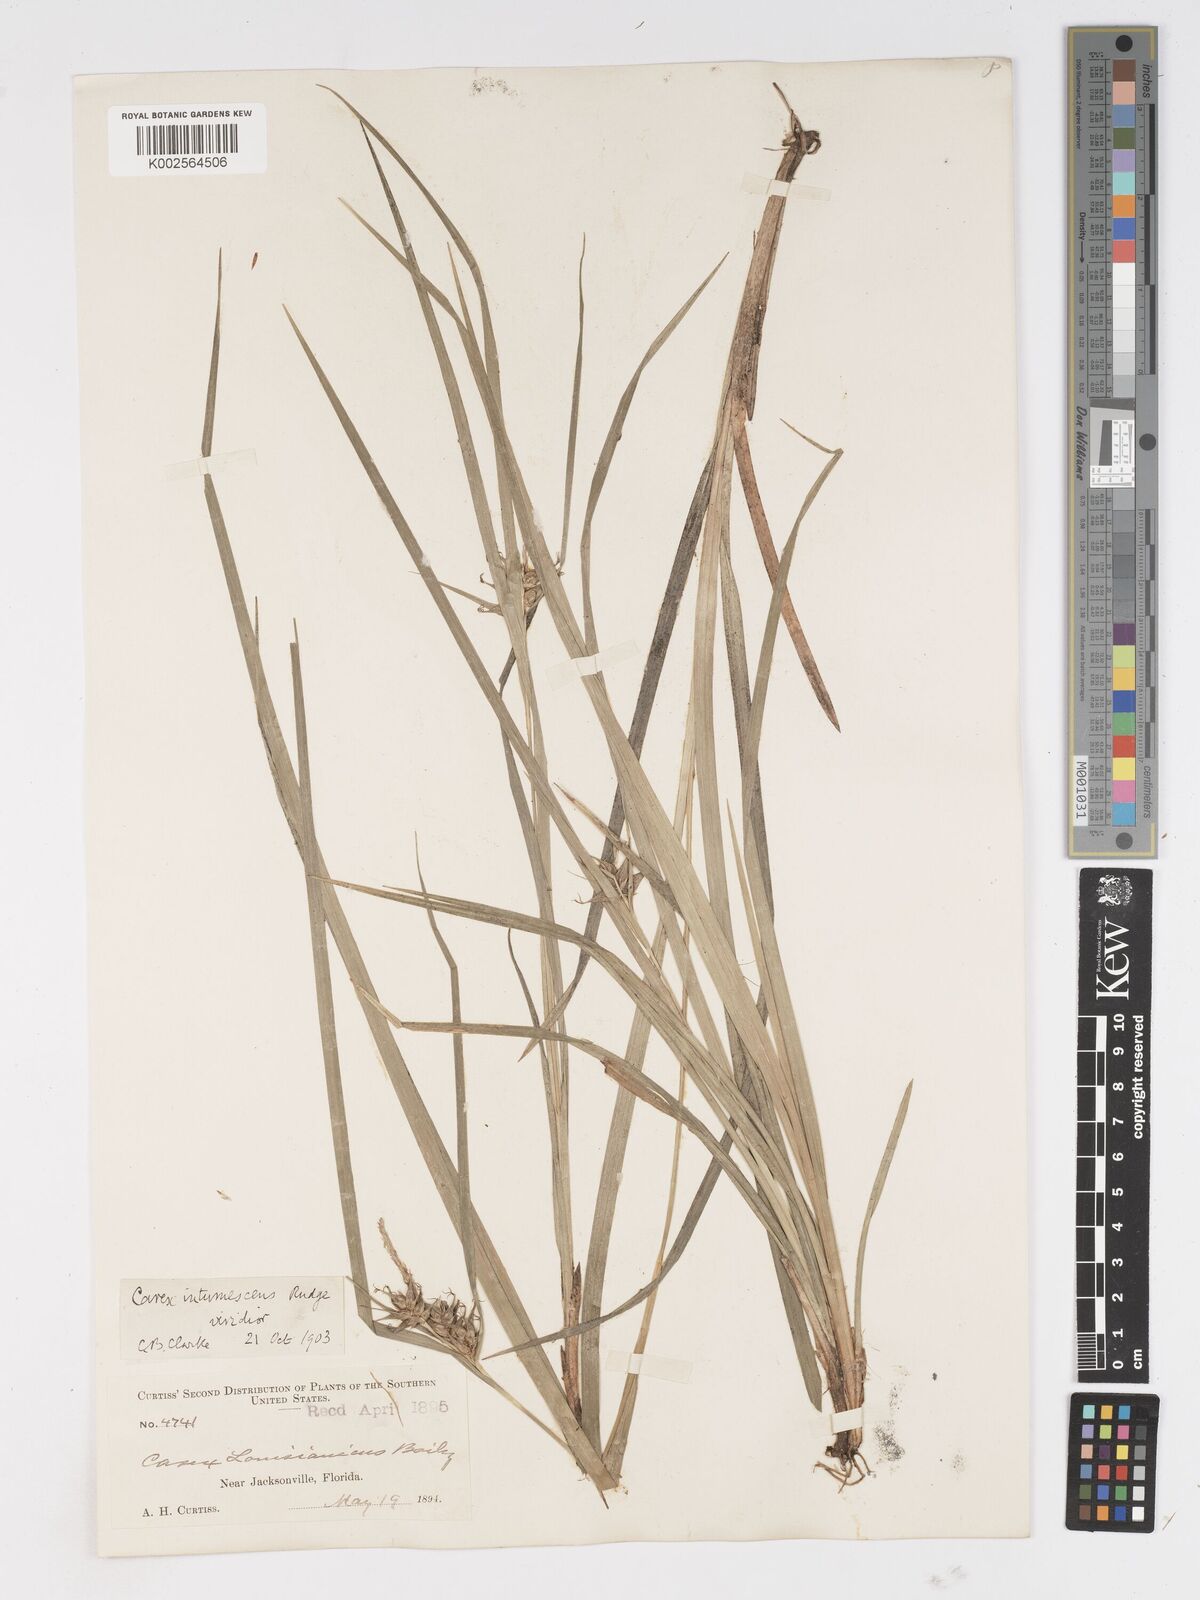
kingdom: Plantae
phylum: Tracheophyta
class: Liliopsida
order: Poales
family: Cyperaceae
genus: Carex
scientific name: Carex louisianica
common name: Louisiana sedge
